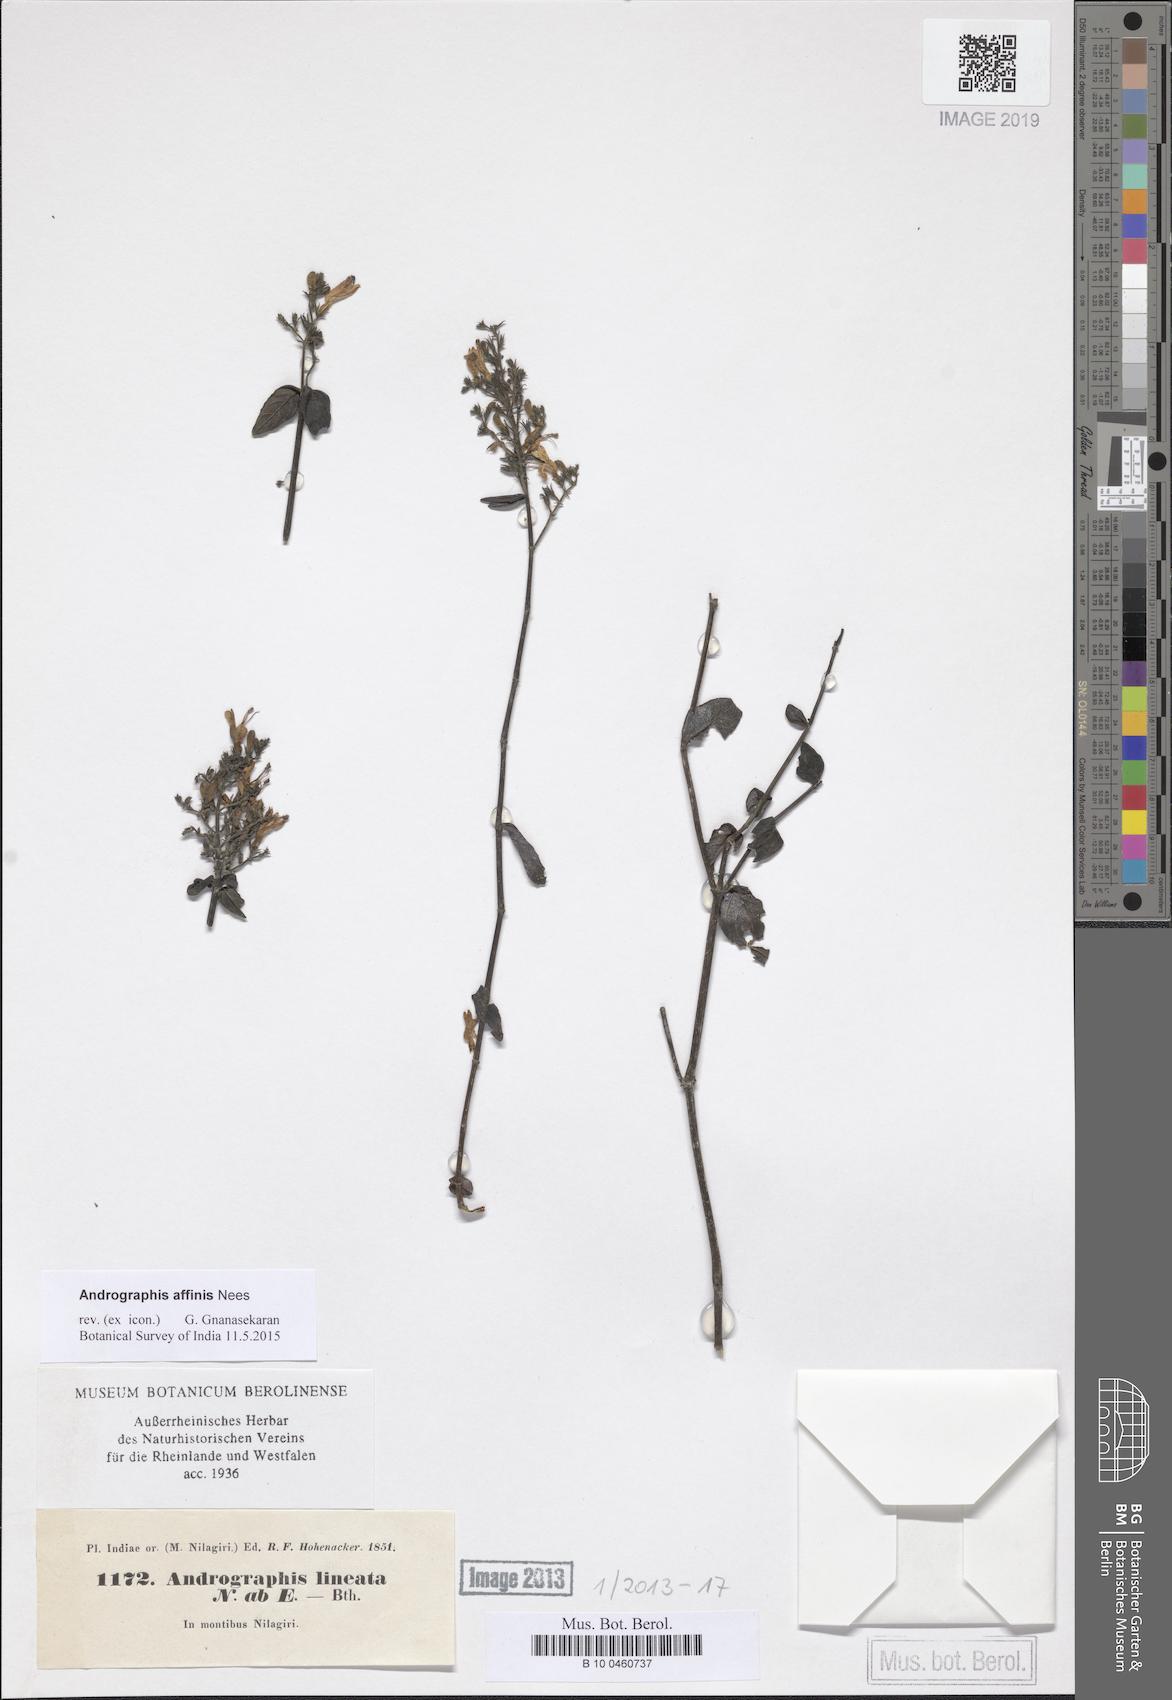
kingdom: Plantae
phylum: Tracheophyta
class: Magnoliopsida
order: Lamiales
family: Acanthaceae
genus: Andrographis
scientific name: Andrographis affinis
